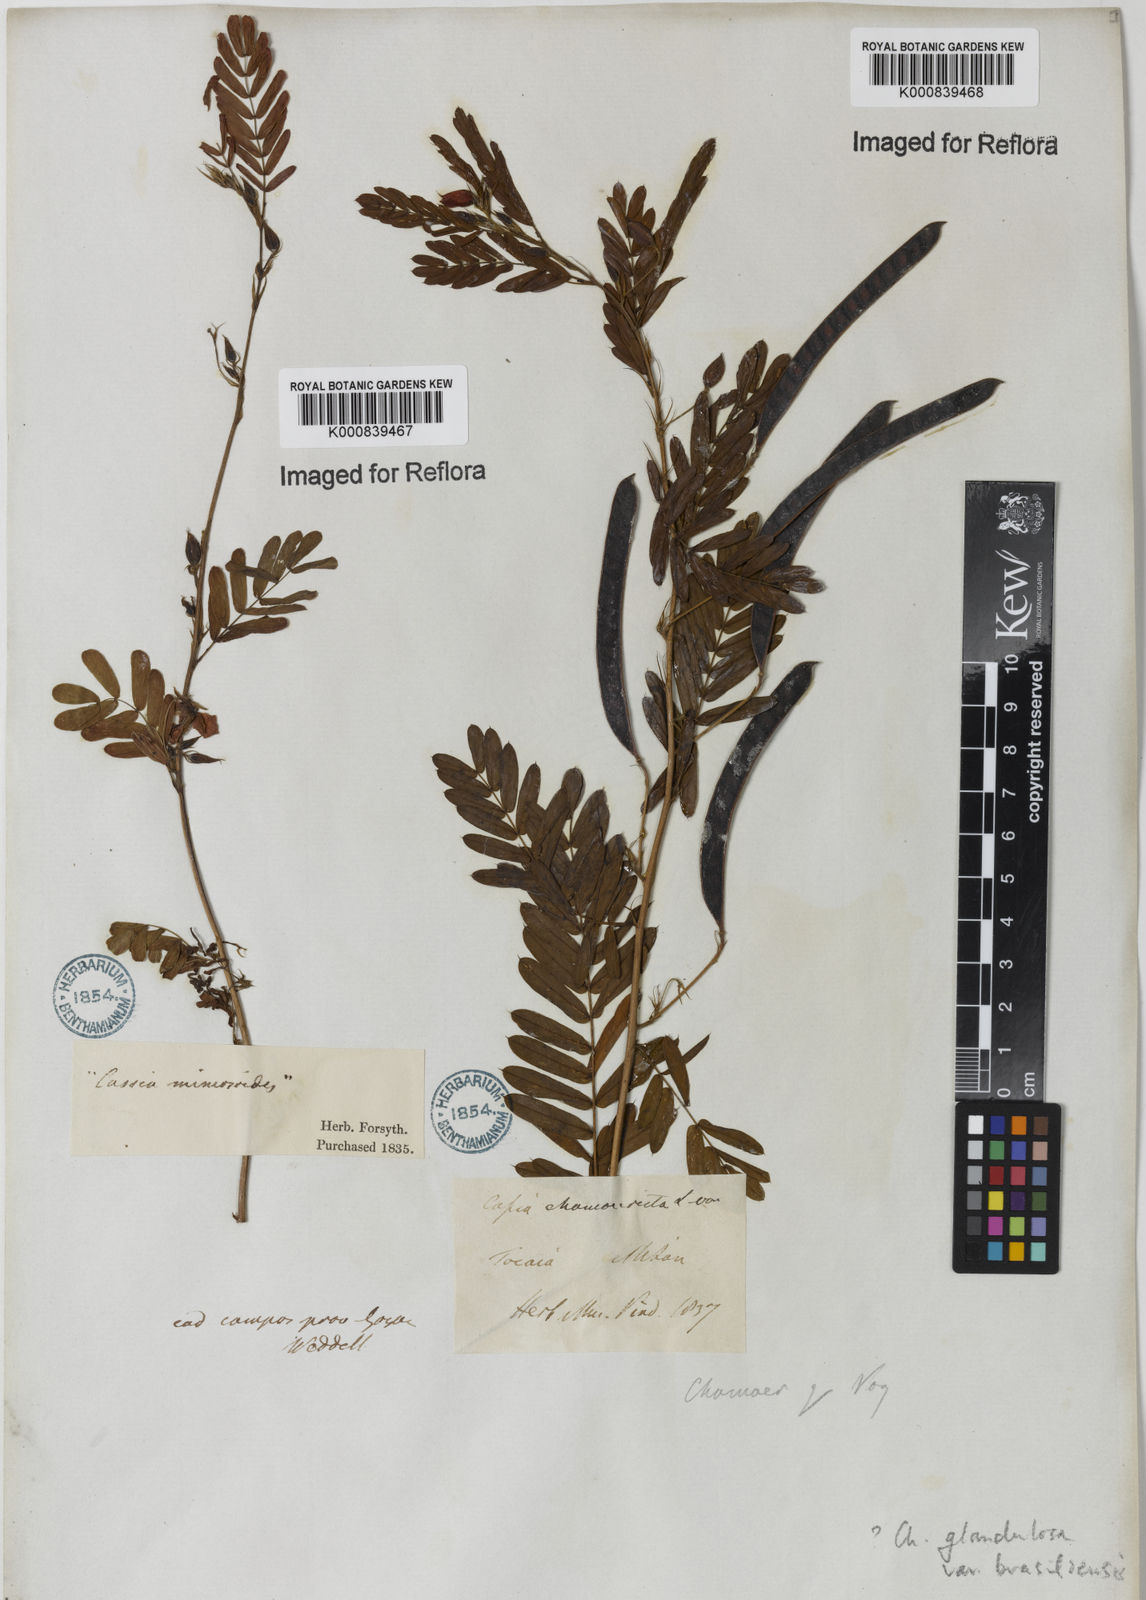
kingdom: Plantae
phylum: Tracheophyta
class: Magnoliopsida
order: Fabales
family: Fabaceae
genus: Chamaecrista
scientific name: Chamaecrista glandulosa
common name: Wild peas
